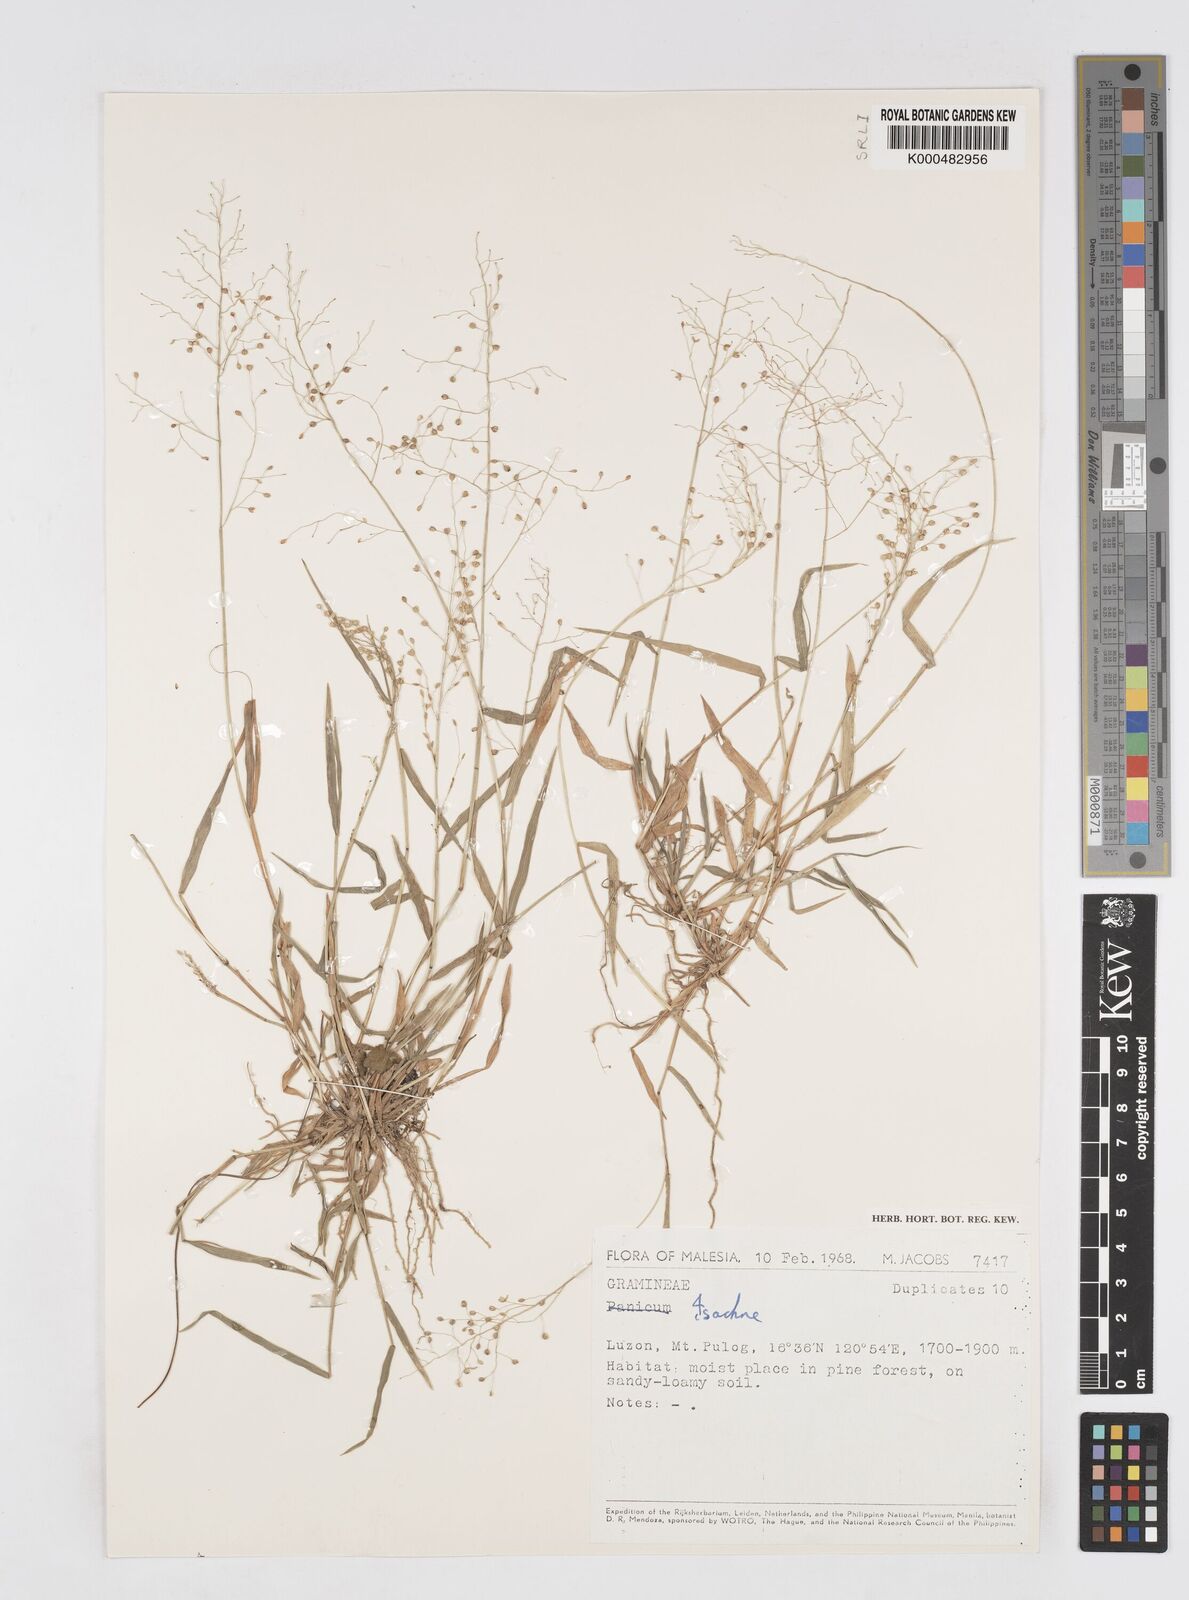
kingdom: Plantae
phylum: Tracheophyta
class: Liliopsida
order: Poales
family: Poaceae
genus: Isachne
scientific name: Isachne clarkei
